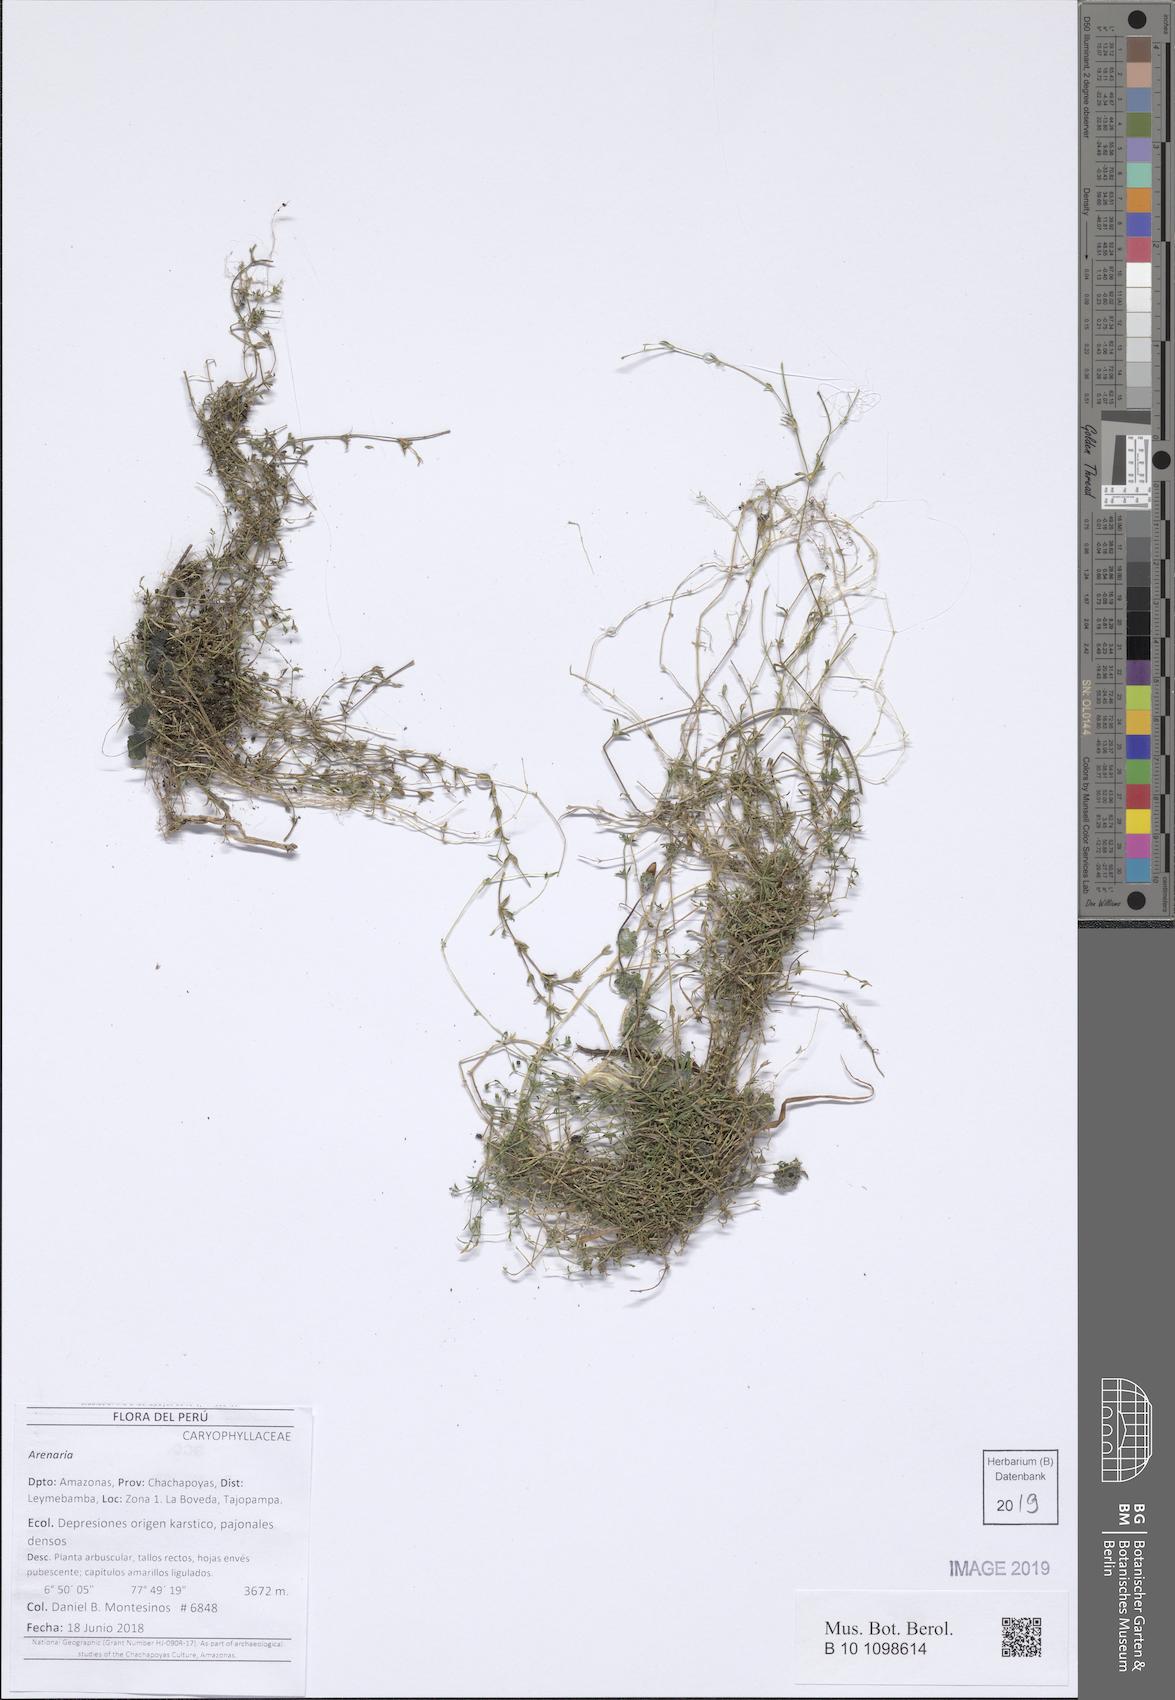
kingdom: Plantae
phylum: Tracheophyta
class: Magnoliopsida
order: Caryophyllales
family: Caryophyllaceae
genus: Arenaria
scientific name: Arenaria
